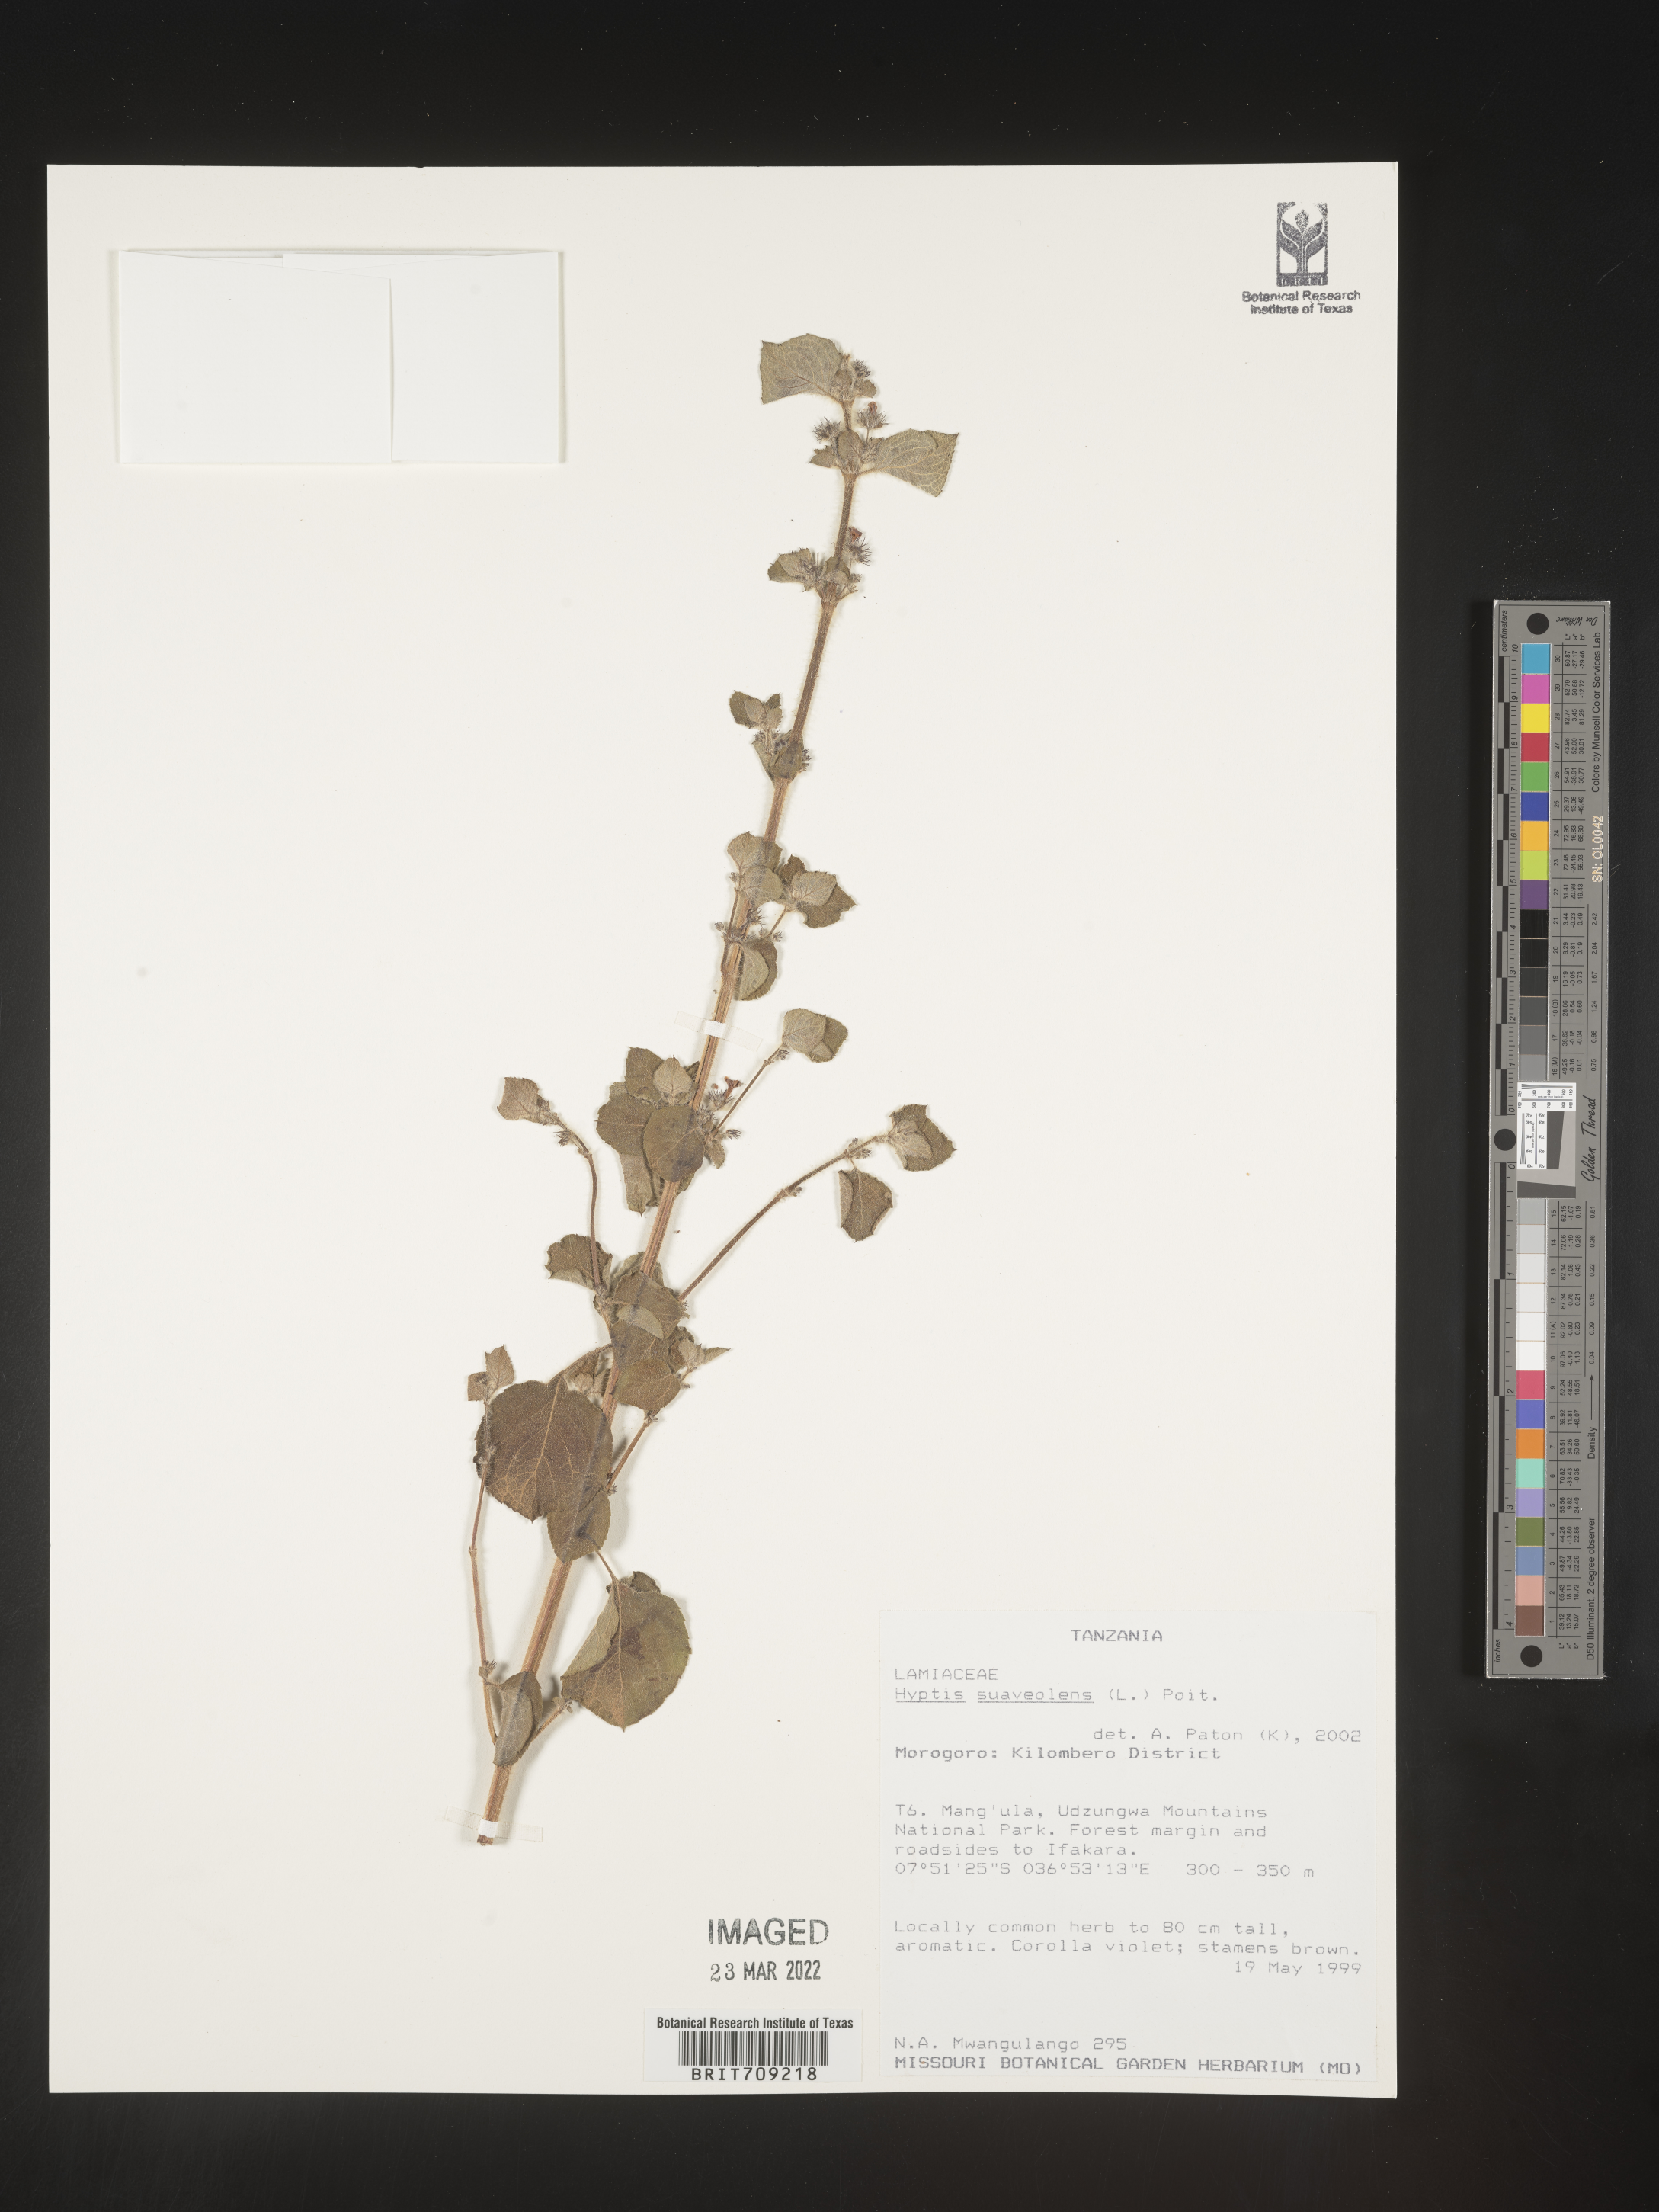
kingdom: Plantae
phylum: Tracheophyta
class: Magnoliopsida
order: Lamiales
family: Lamiaceae
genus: Hyptis
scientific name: Hyptis
